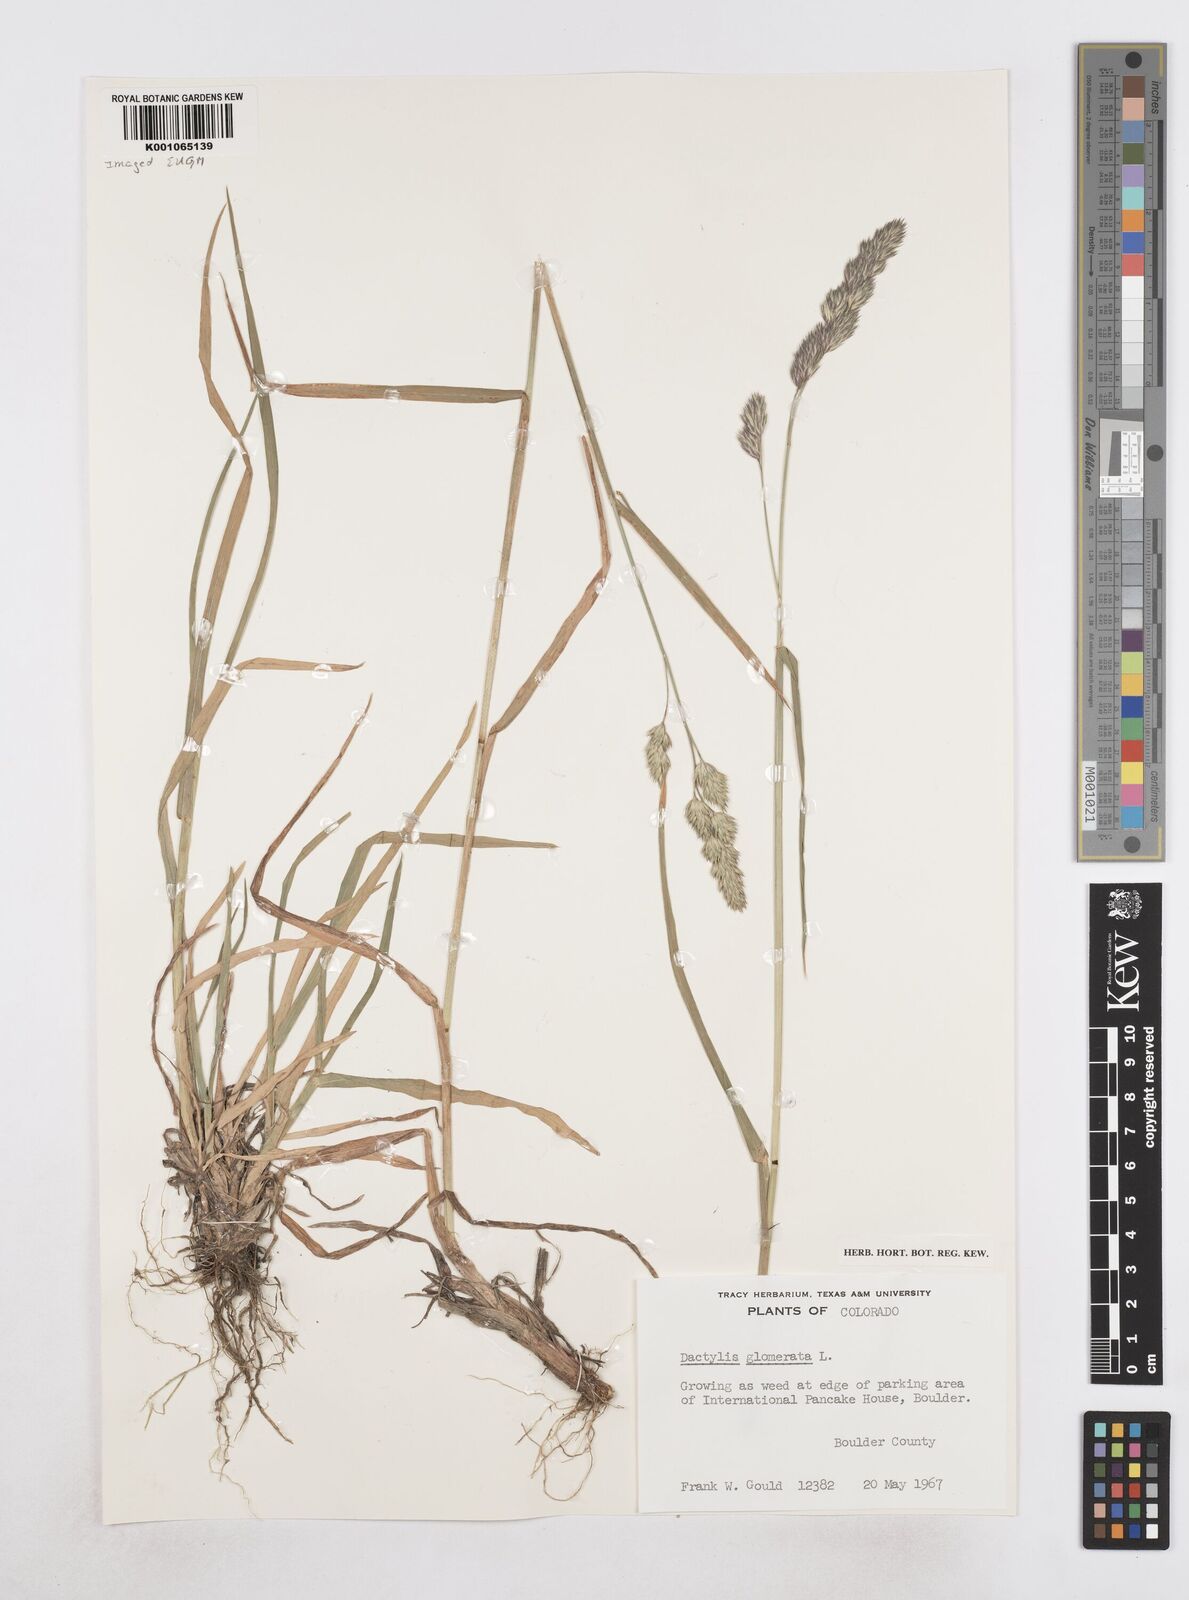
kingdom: Plantae
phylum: Tracheophyta
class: Liliopsida
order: Poales
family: Poaceae
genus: Dactylis
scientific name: Dactylis glomerata
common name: Orchardgrass
